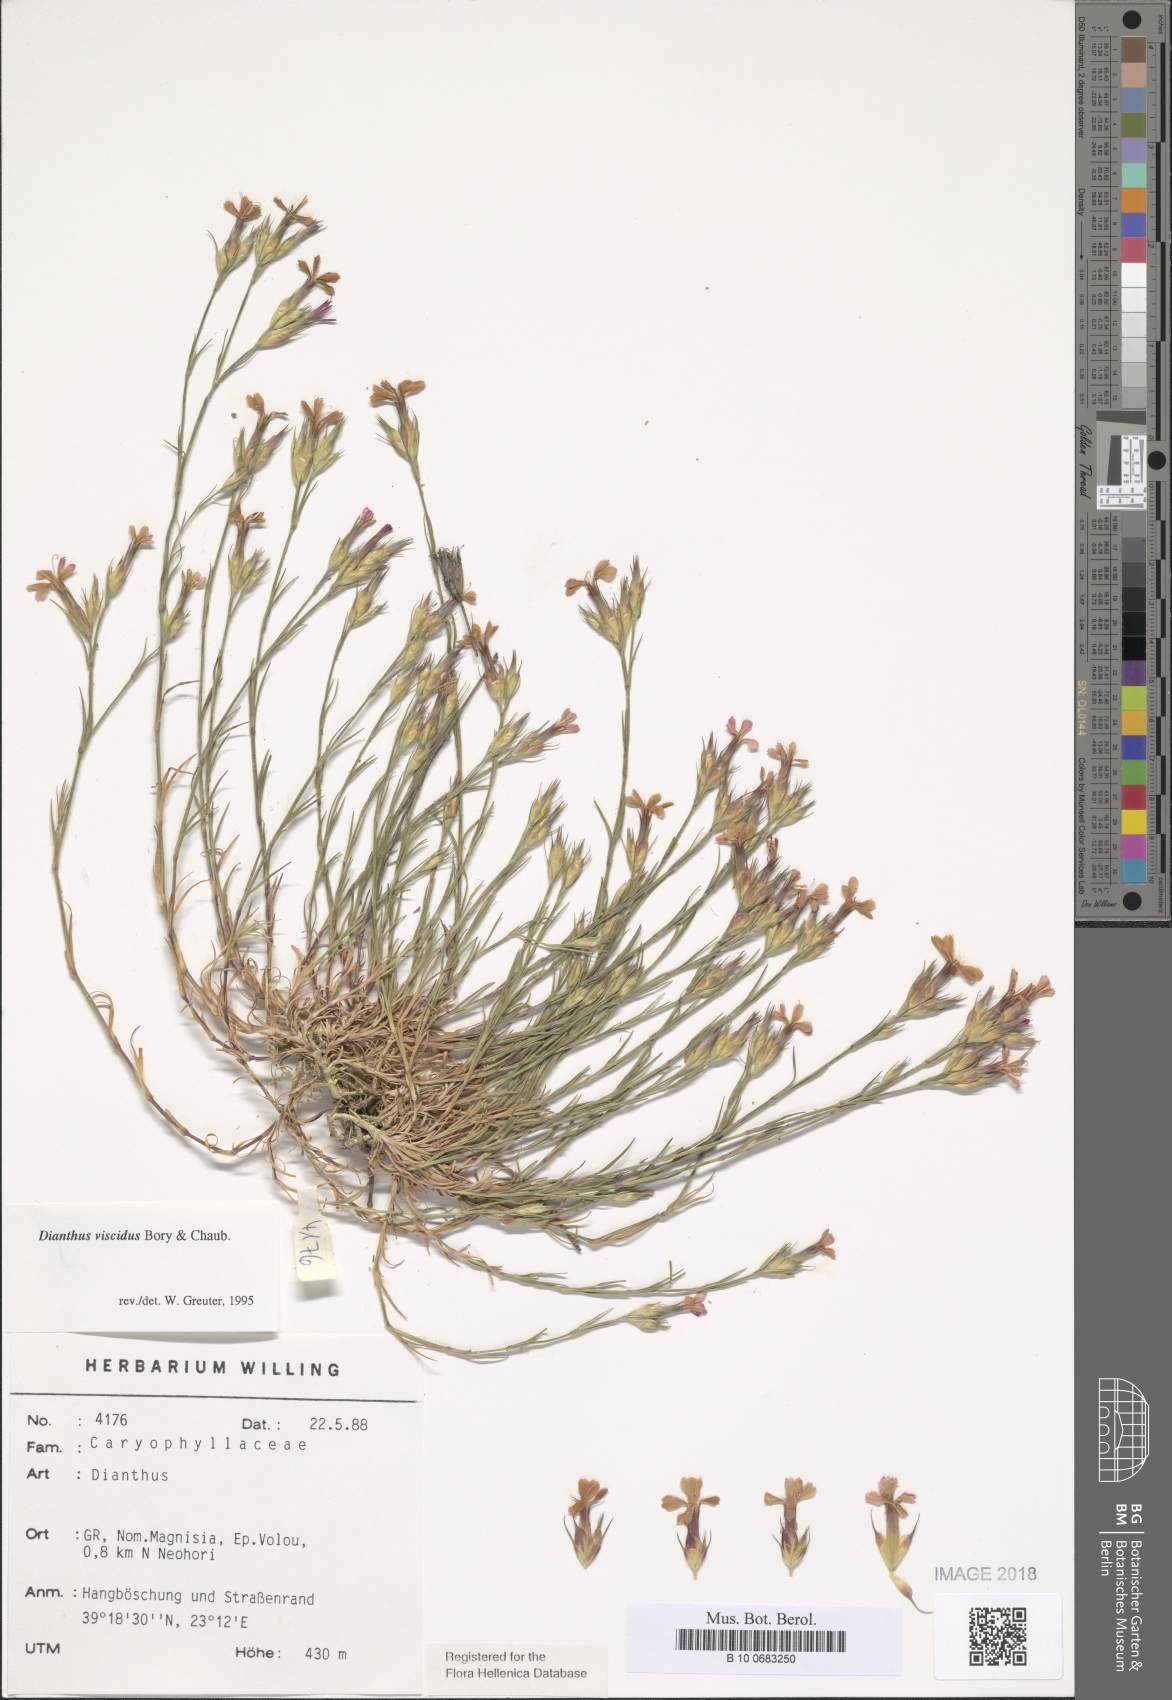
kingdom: Plantae
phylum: Tracheophyta
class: Magnoliopsida
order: Caryophyllales
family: Caryophyllaceae
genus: Dianthus
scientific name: Dianthus viscidus
